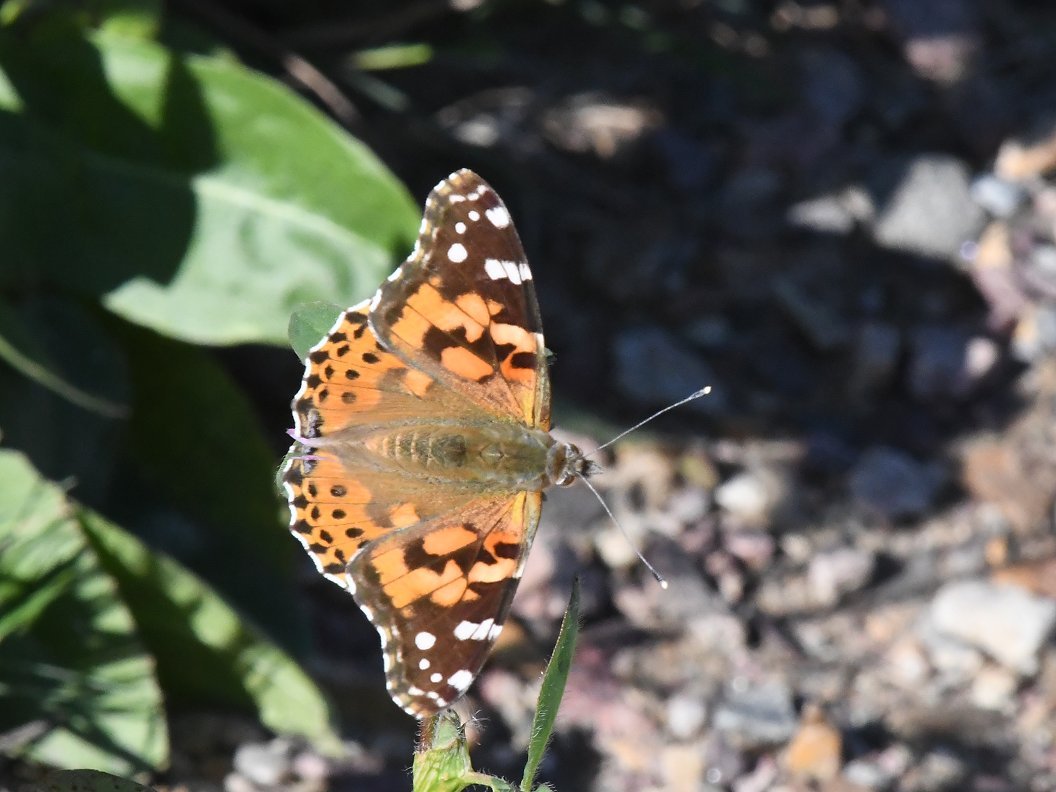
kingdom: Animalia
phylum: Arthropoda
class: Insecta
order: Lepidoptera
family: Nymphalidae
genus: Vanessa
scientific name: Vanessa cardui
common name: Painted Lady
